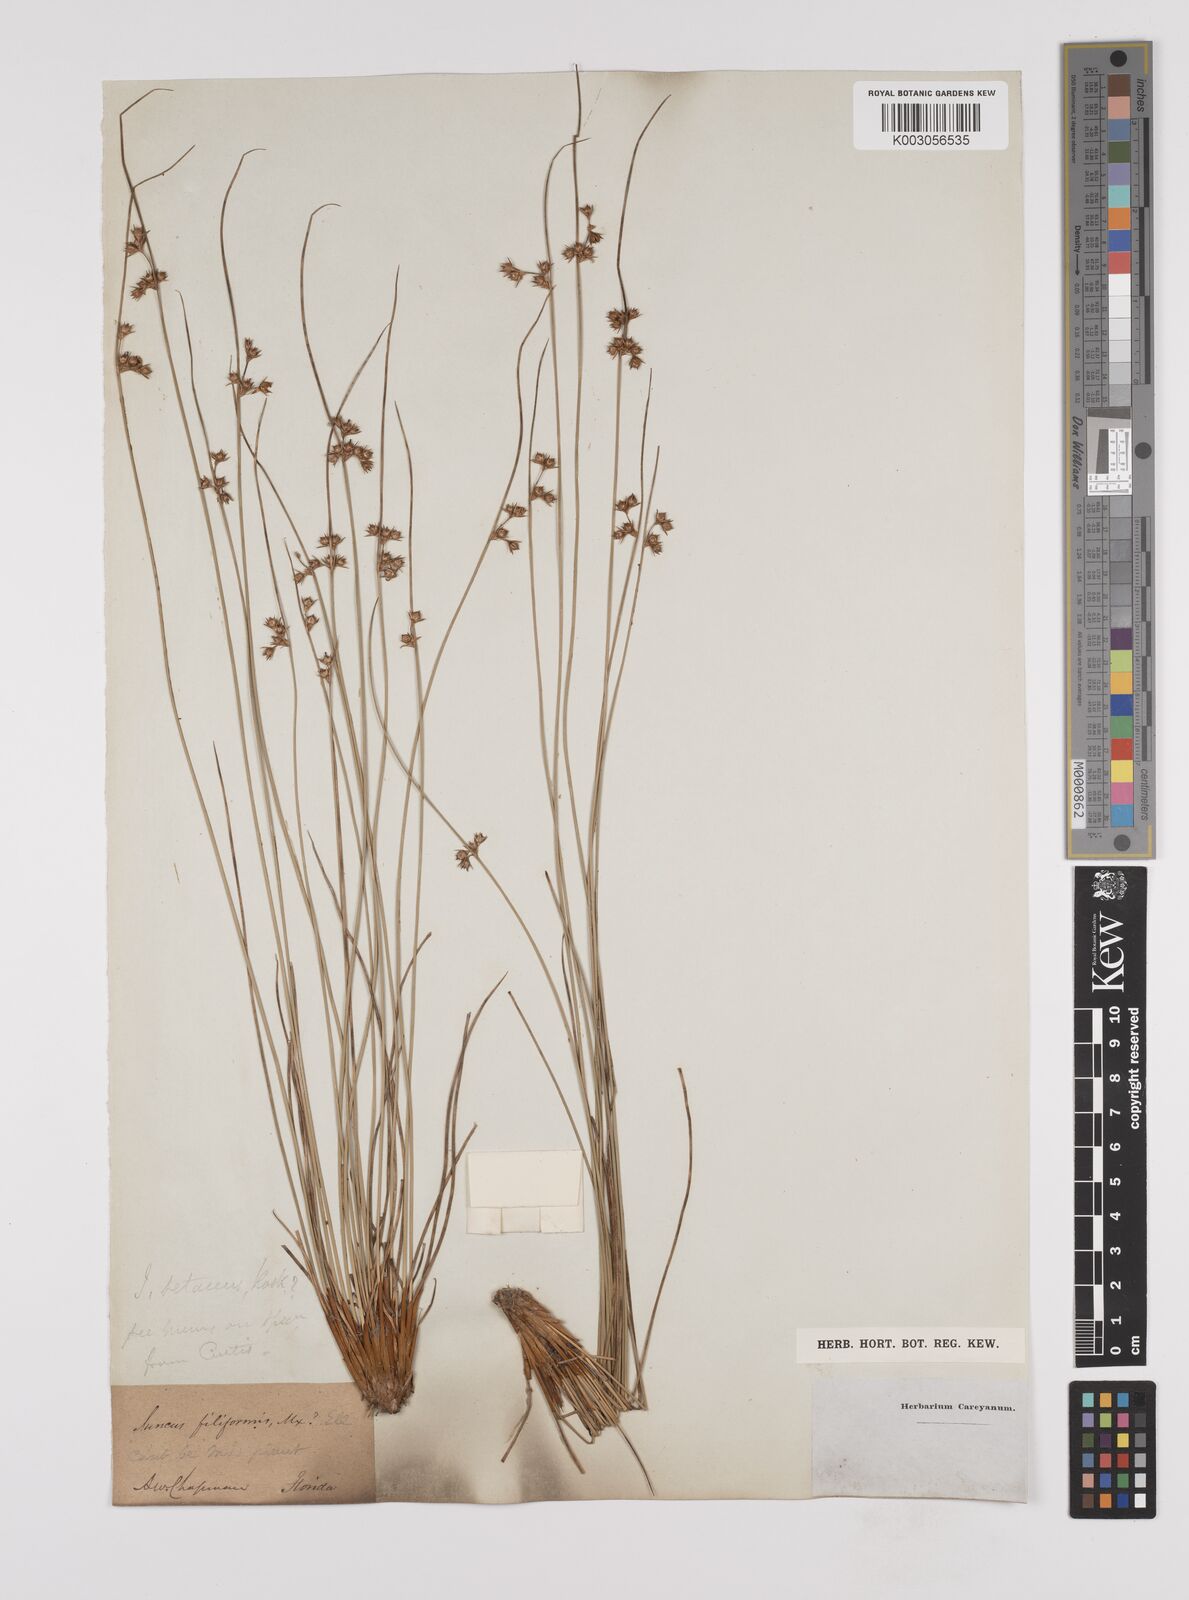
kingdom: Plantae
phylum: Tracheophyta
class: Liliopsida
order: Poales
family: Juncaceae
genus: Juncus
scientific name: Juncus balticus
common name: Baltic rush
